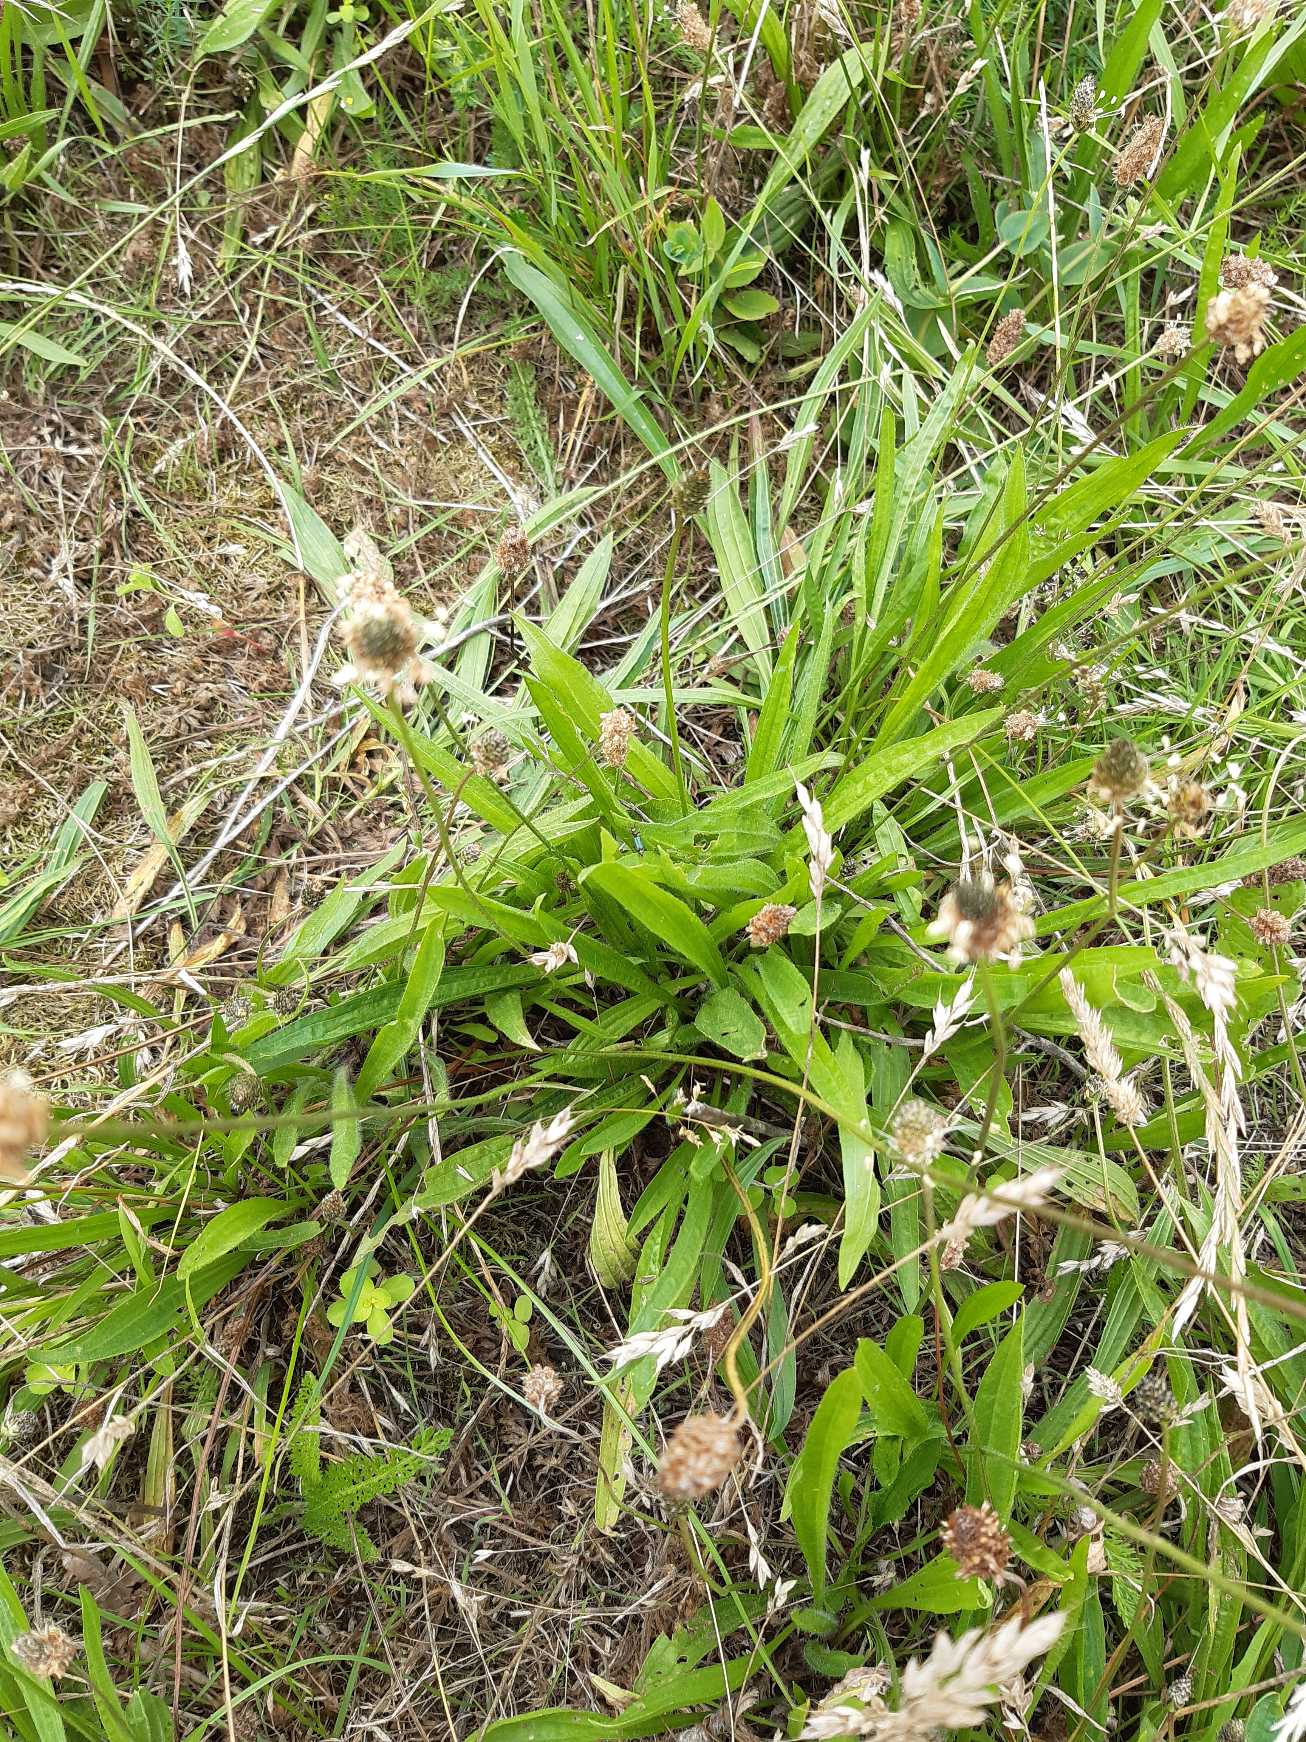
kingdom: Plantae
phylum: Tracheophyta
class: Magnoliopsida
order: Lamiales
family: Plantaginaceae
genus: Plantago
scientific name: Plantago lanceolata
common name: Lancet-vejbred
